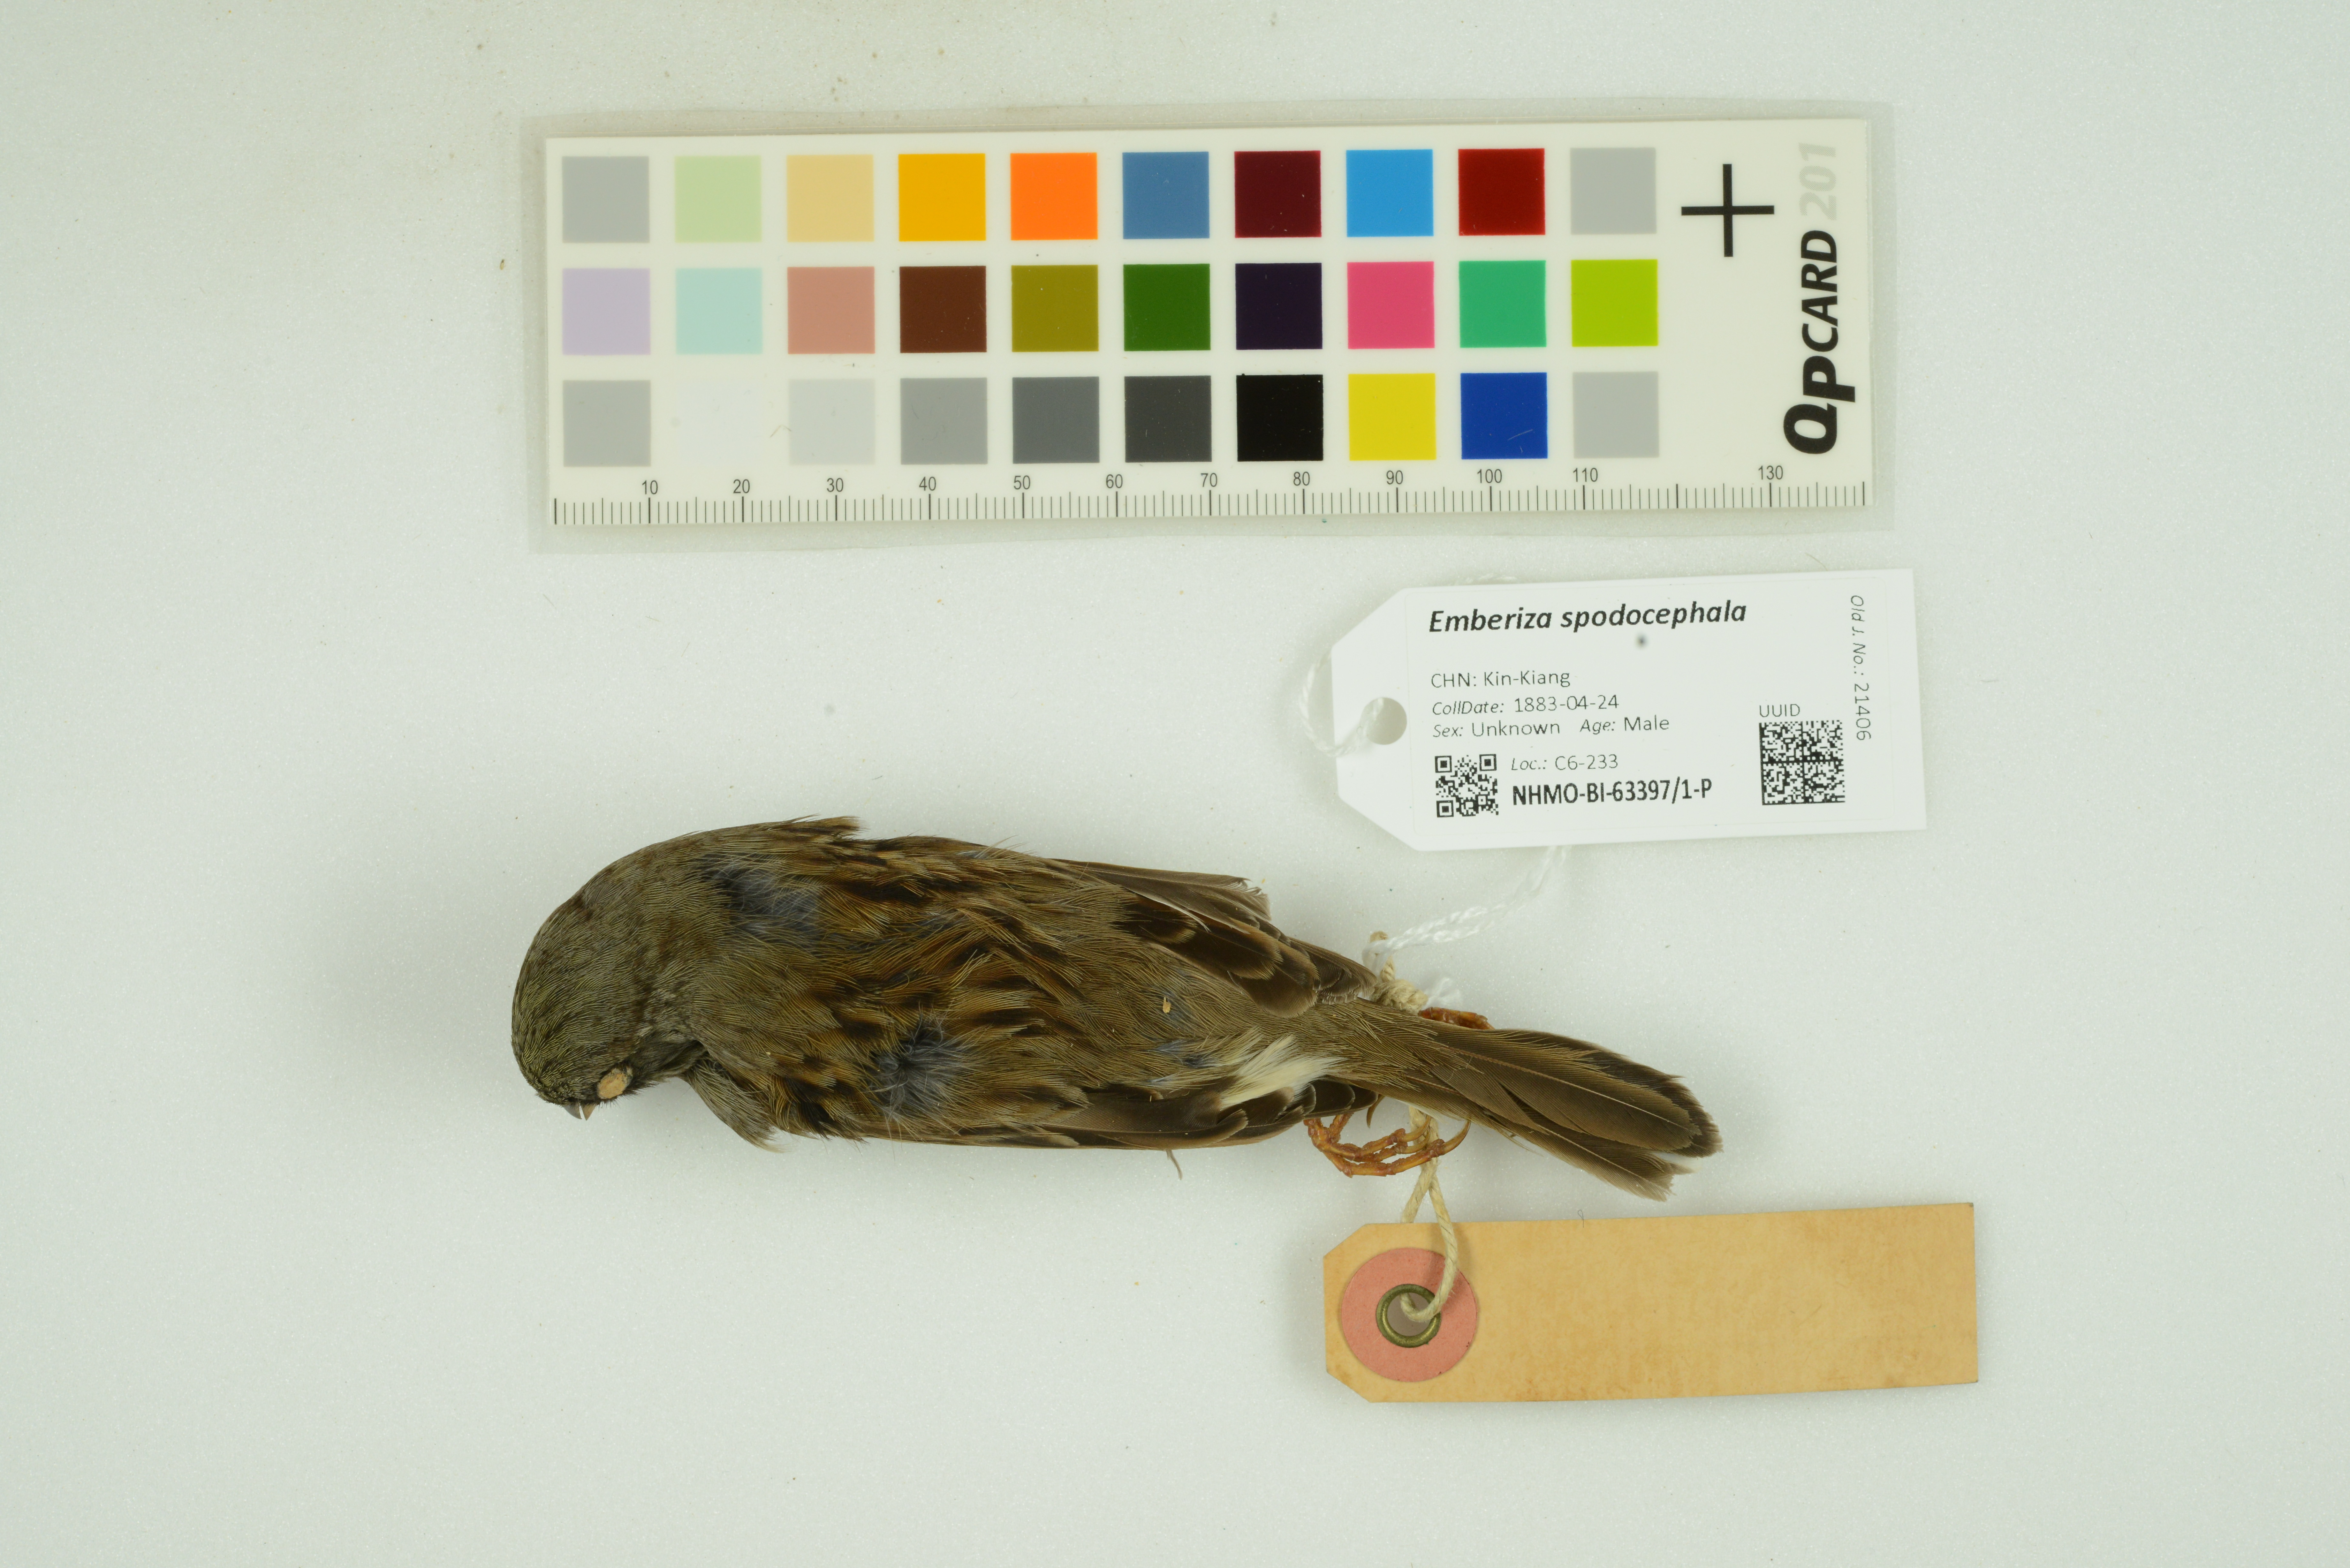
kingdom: Animalia
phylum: Chordata
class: Aves
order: Passeriformes
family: Emberizidae
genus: Emberiza
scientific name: Emberiza spodocephala
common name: Black-faced bunting
